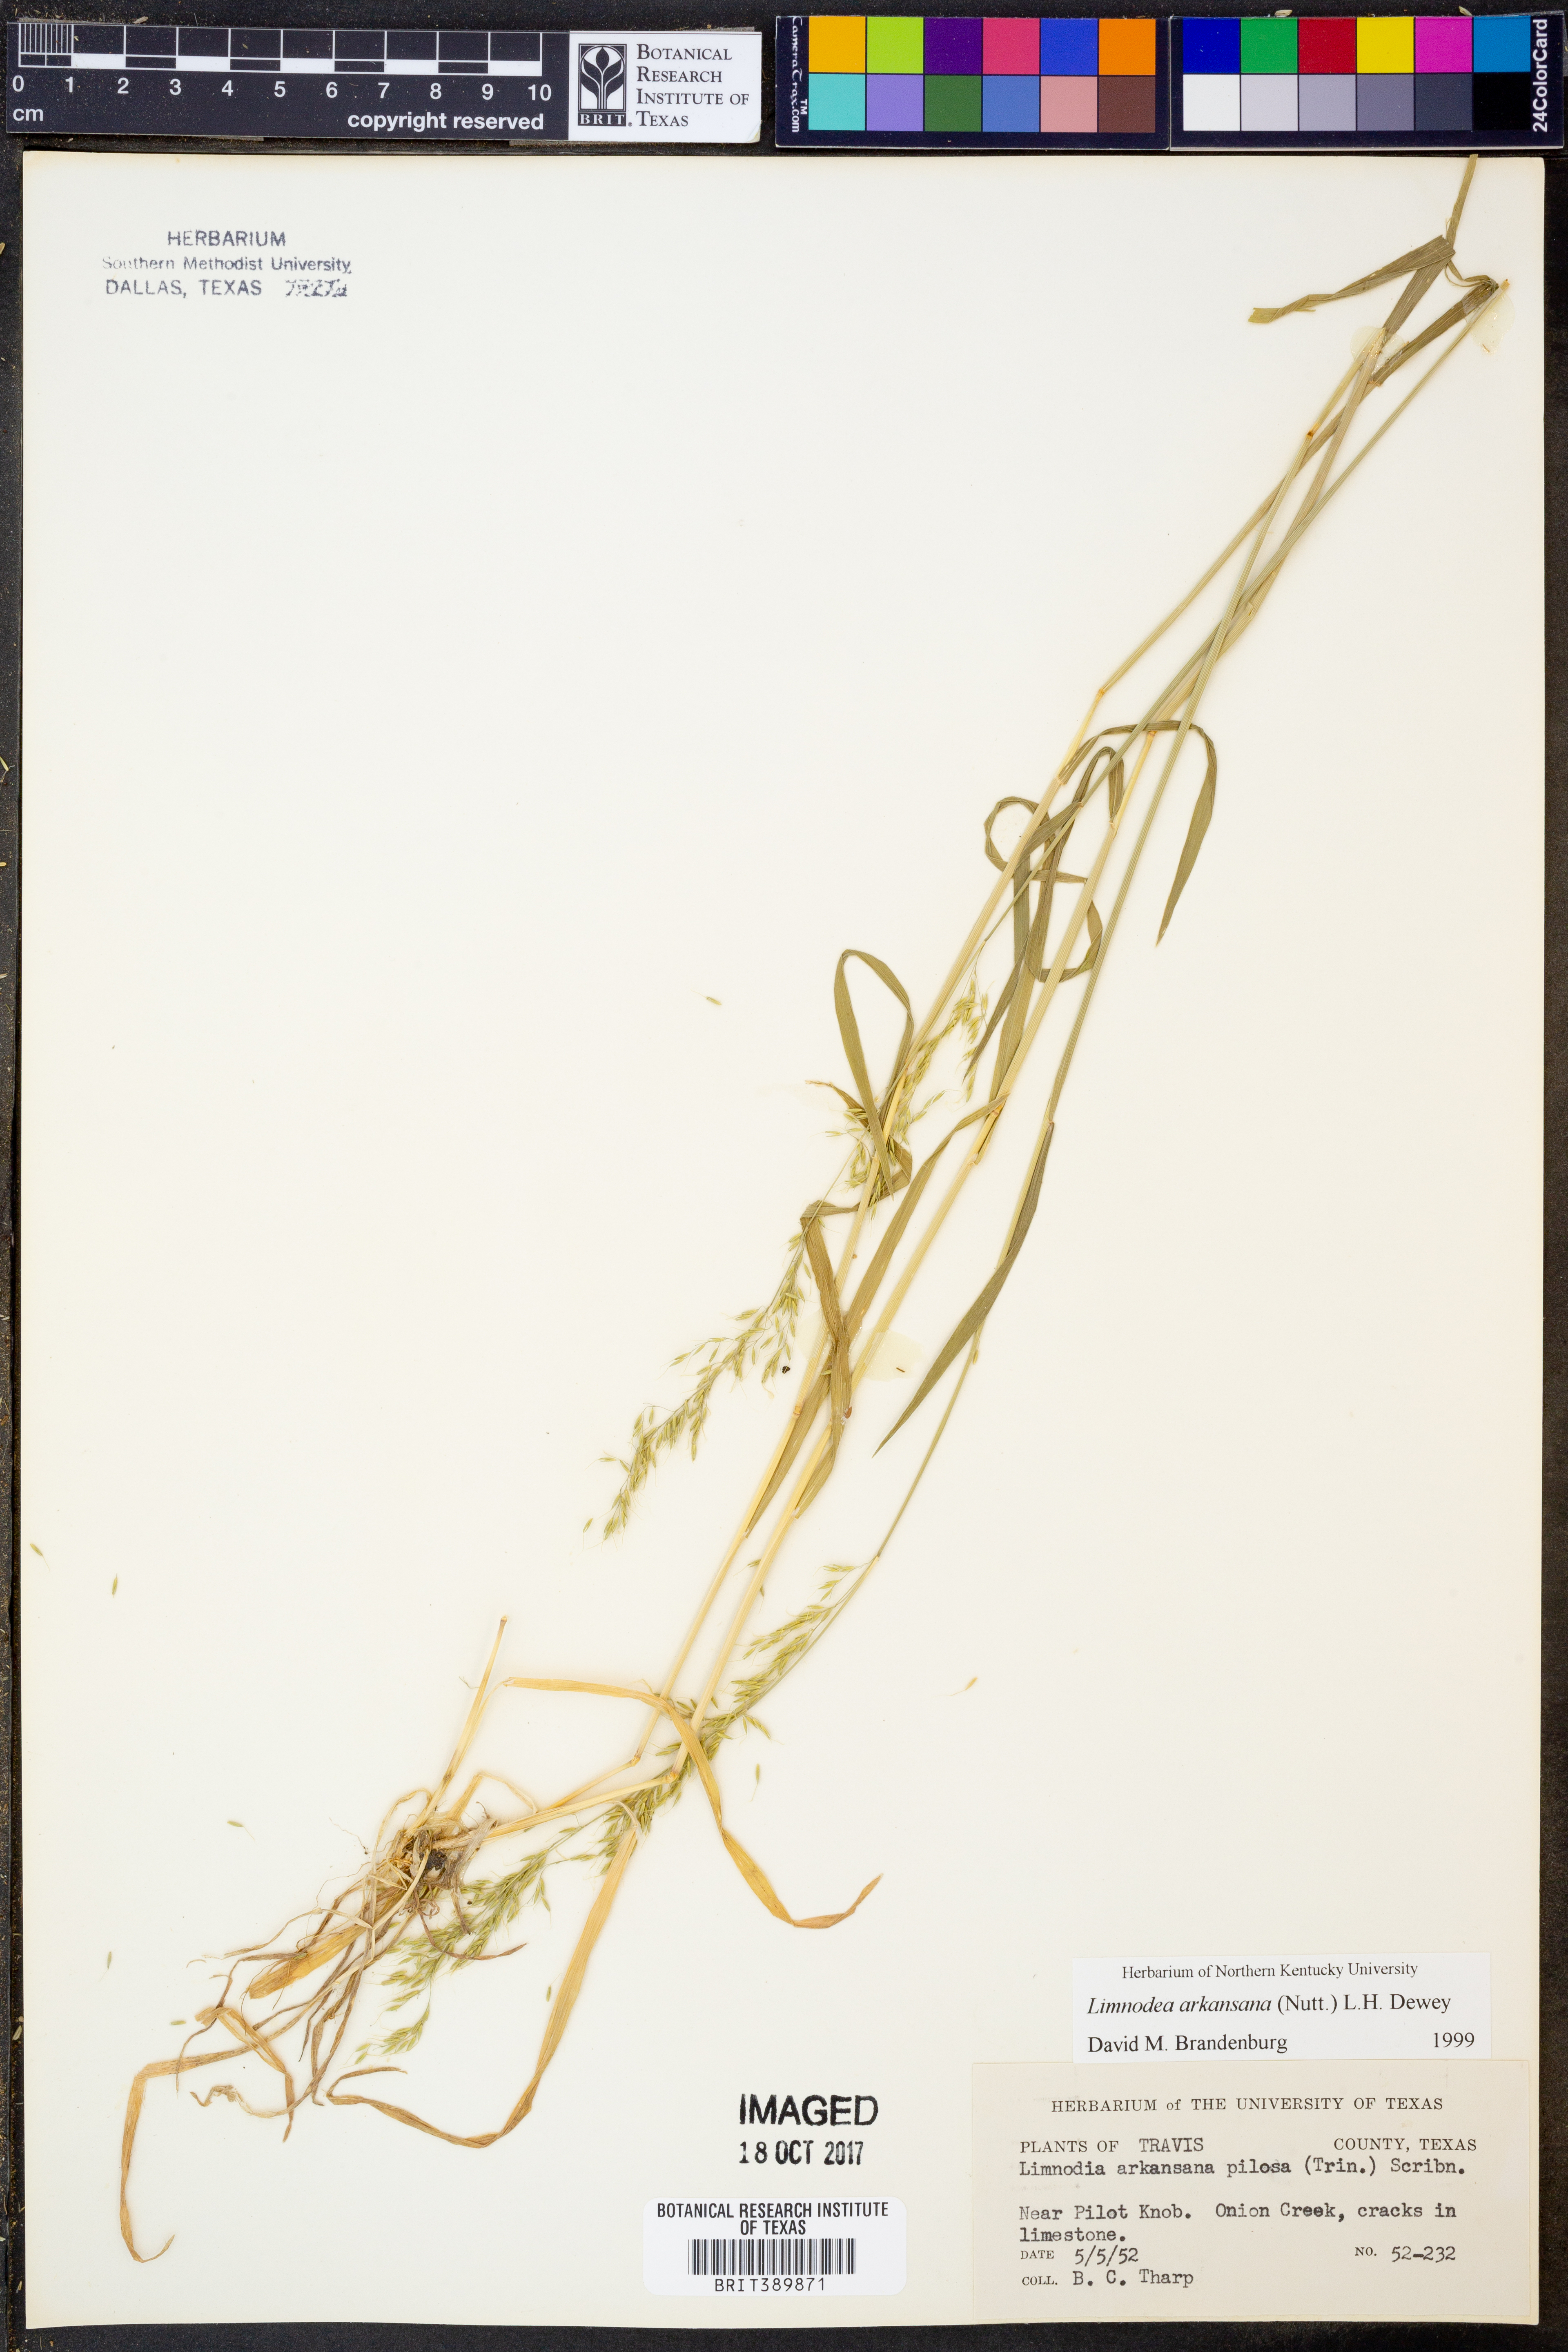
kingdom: Plantae
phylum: Tracheophyta
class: Liliopsida
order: Poales
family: Poaceae
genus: Limnodea
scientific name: Limnodea arkansana
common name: Ozark-grass
